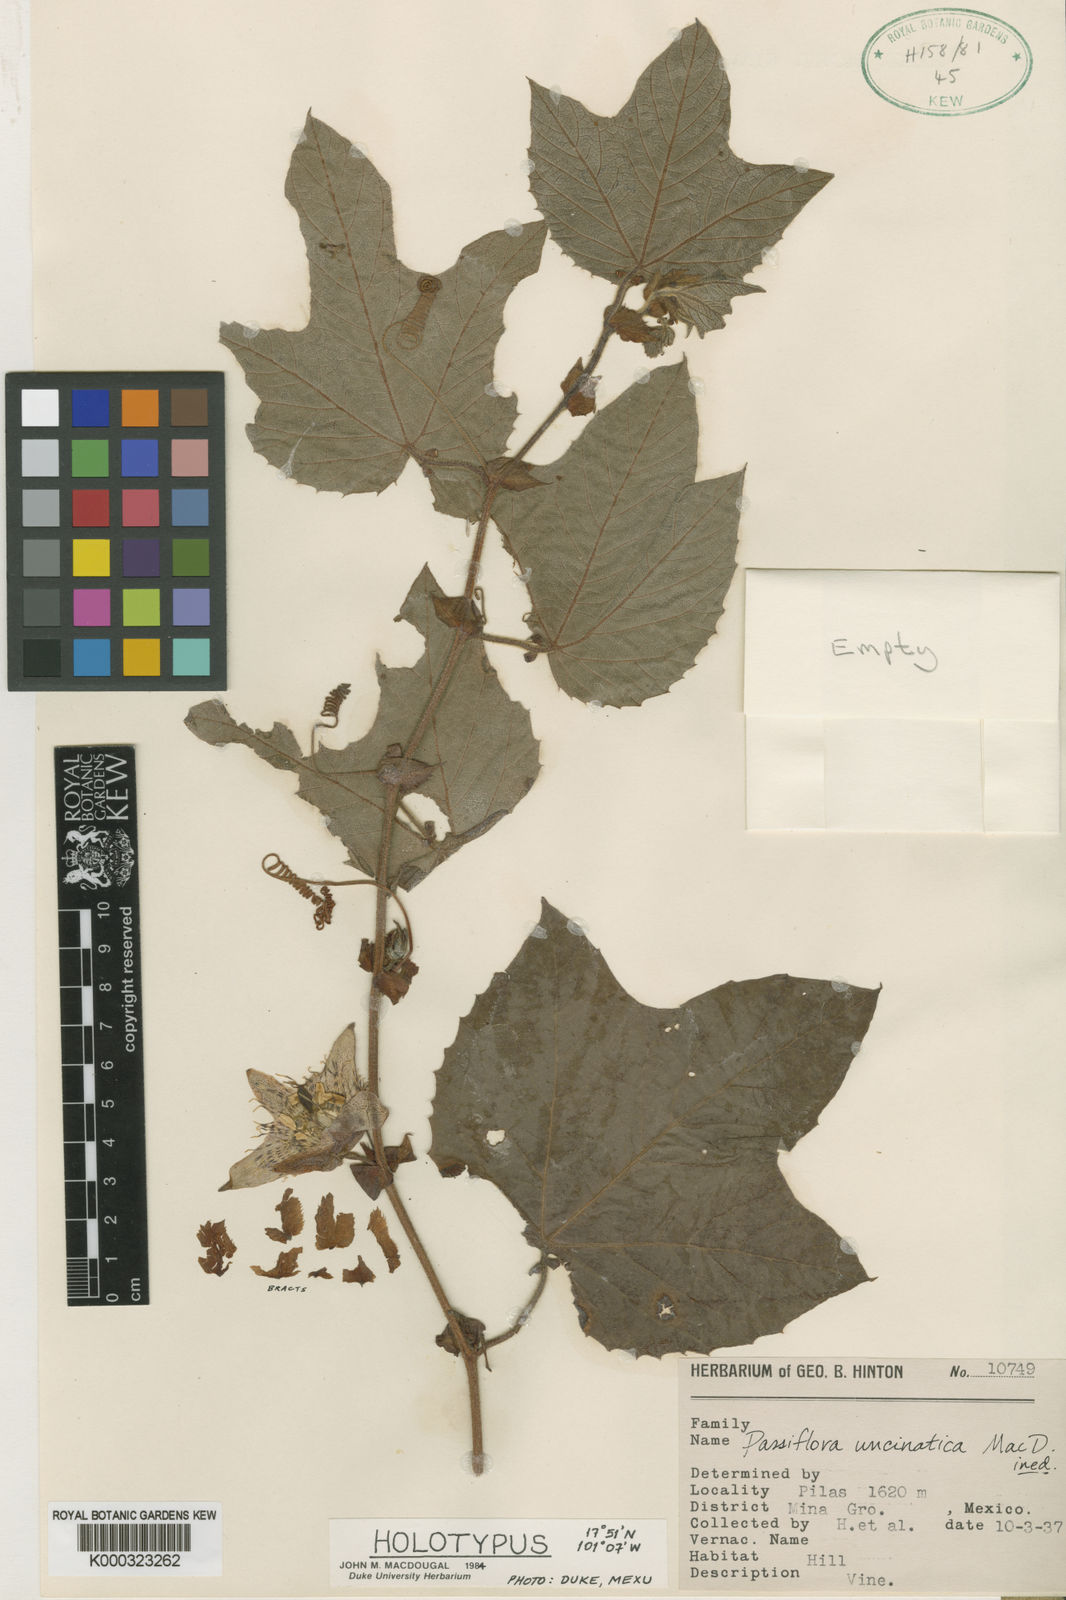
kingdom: Plantae
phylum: Tracheophyta
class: Magnoliopsida
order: Malpighiales
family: Passifloraceae
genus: Passiflora
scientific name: Passiflora uncinata
